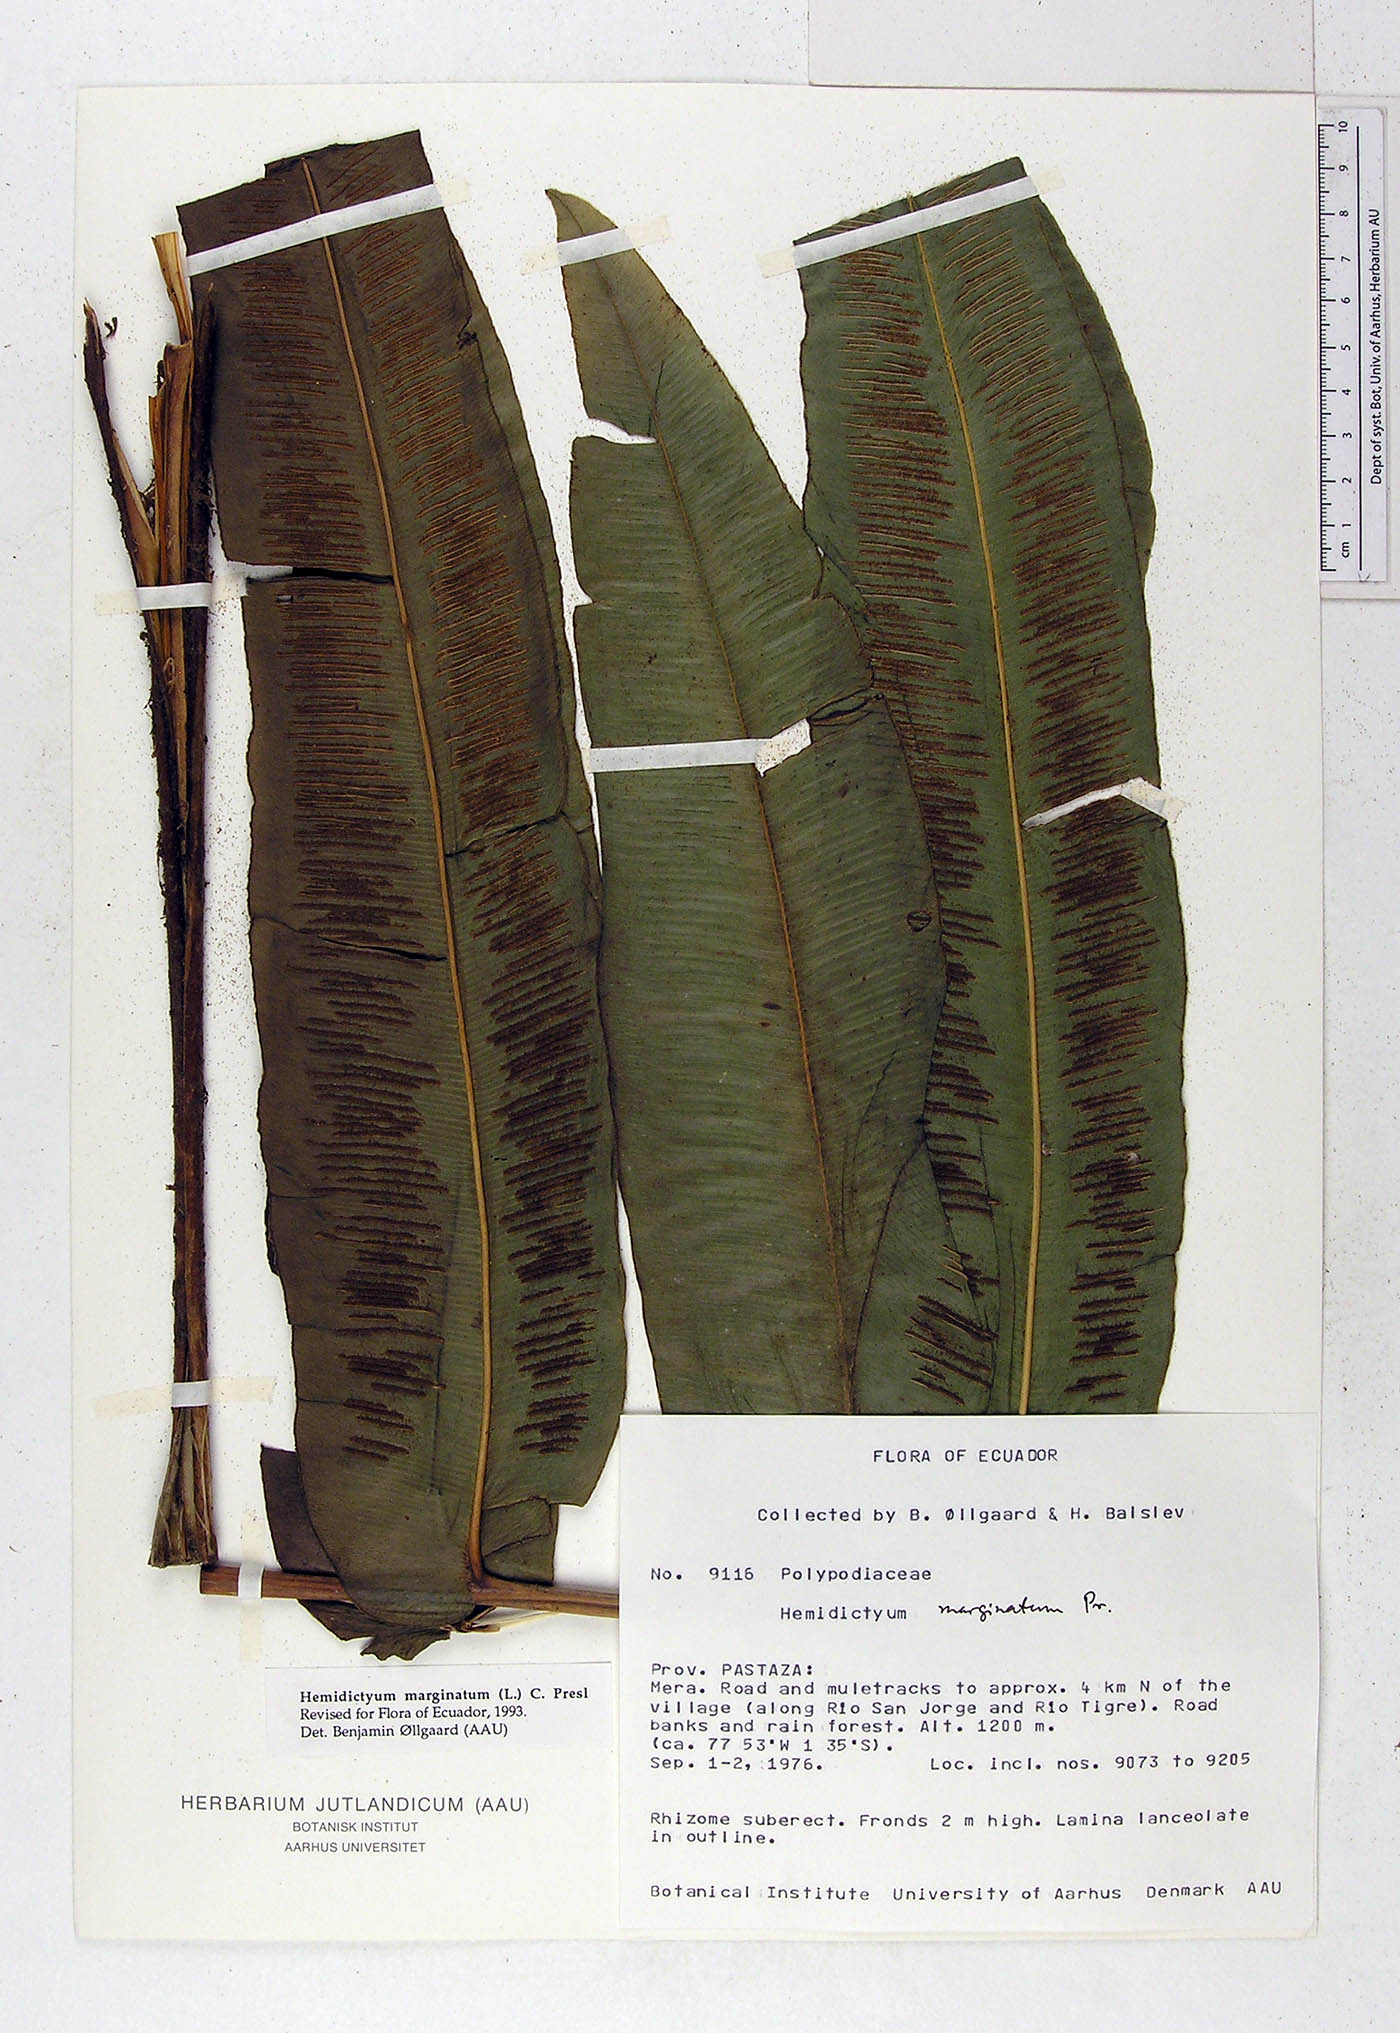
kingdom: Plantae
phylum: Tracheophyta
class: Polypodiopsida
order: Polypodiales
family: Hemidictyaceae
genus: Hemidictyum
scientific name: Hemidictyum marginatum
